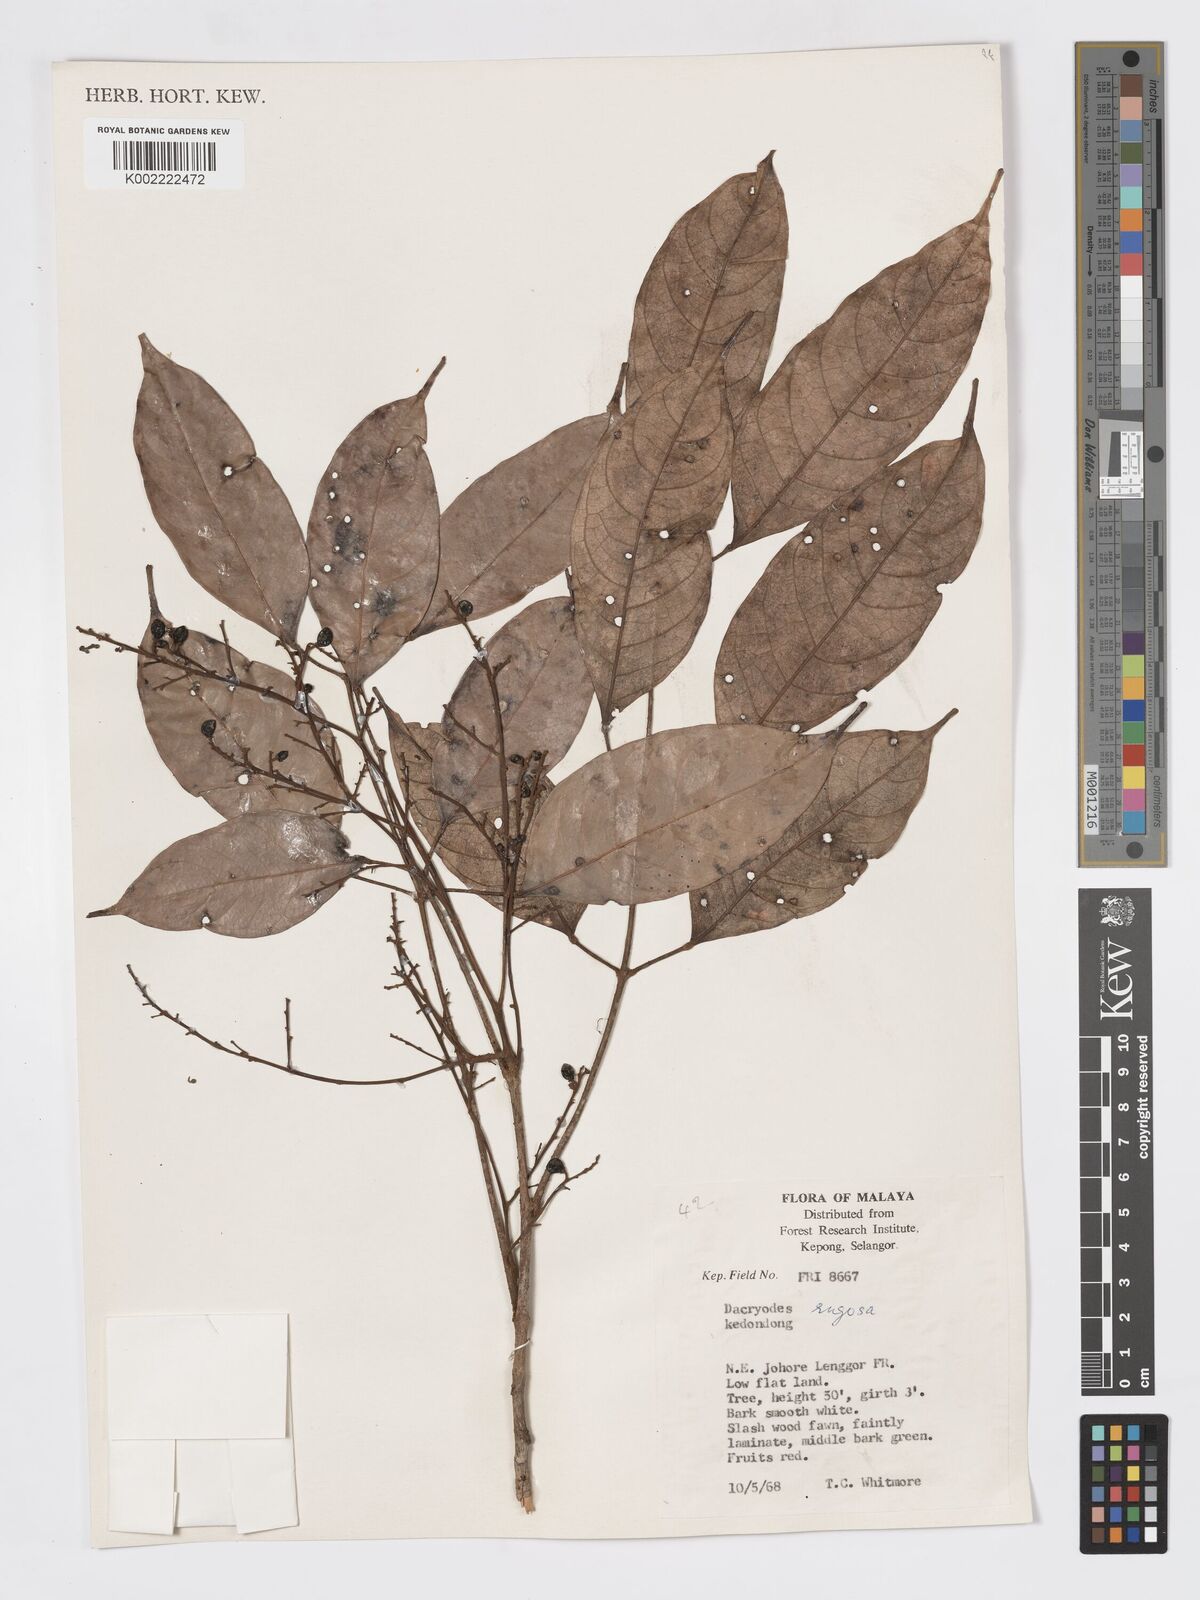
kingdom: Plantae
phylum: Tracheophyta
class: Magnoliopsida
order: Sapindales
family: Burseraceae
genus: Dacryodes
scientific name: Dacryodes rugosa
